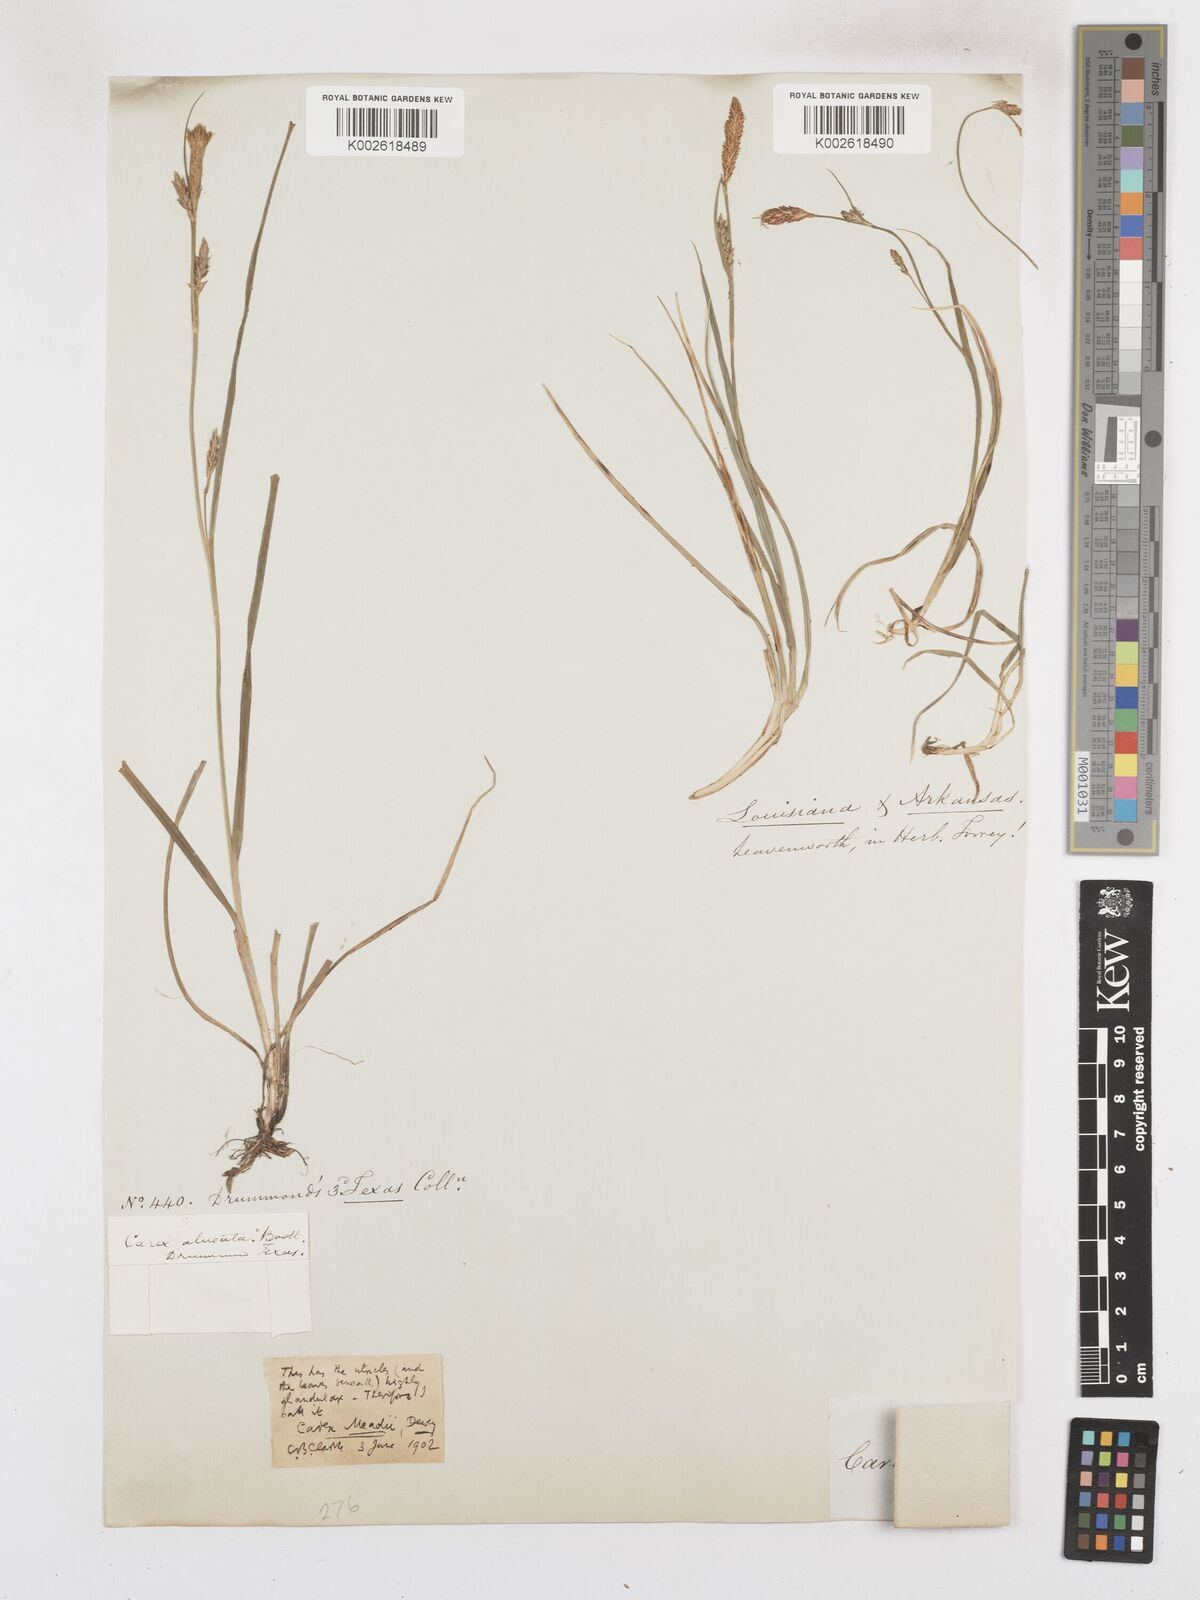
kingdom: Plantae
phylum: Tracheophyta
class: Liliopsida
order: Poales
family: Cyperaceae
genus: Carex
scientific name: Carex meadii
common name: Mead's sedge
